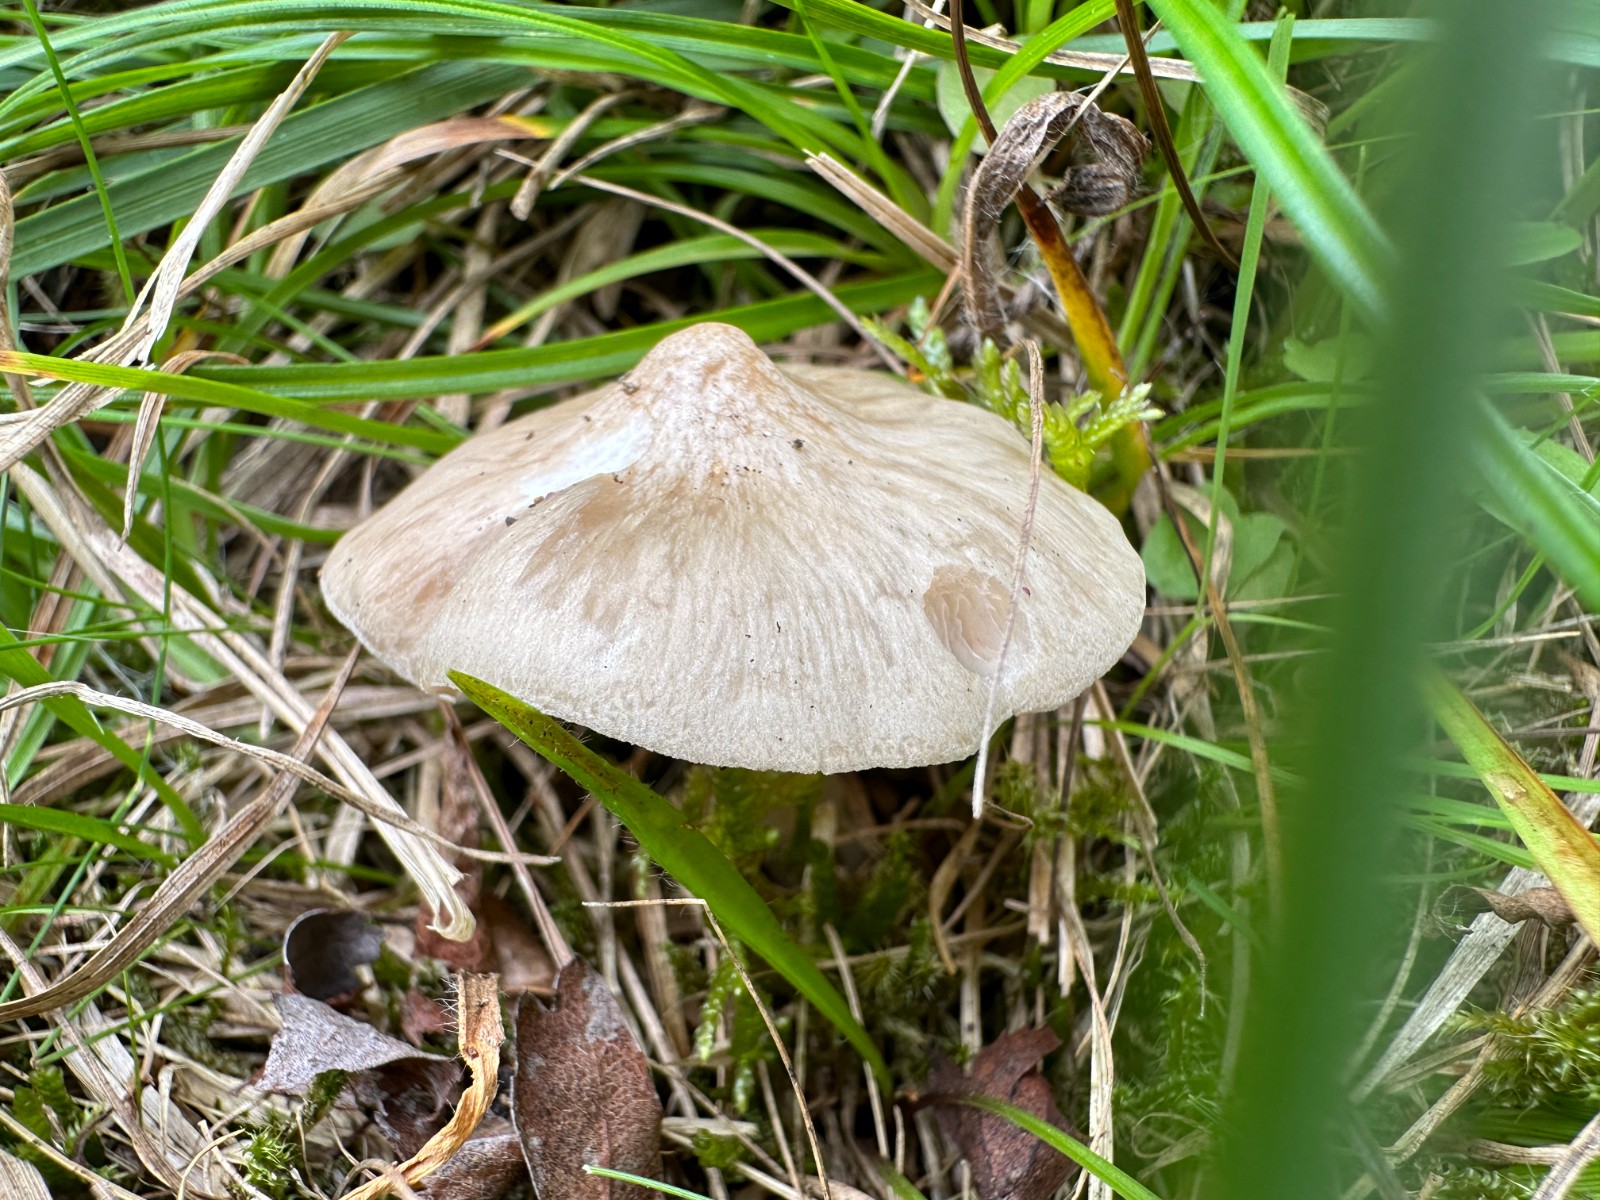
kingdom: Fungi
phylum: Basidiomycota
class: Agaricomycetes
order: Agaricales
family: Entolomataceae
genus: Entoloma
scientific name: Entoloma prunuloides
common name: mel-rødblad
